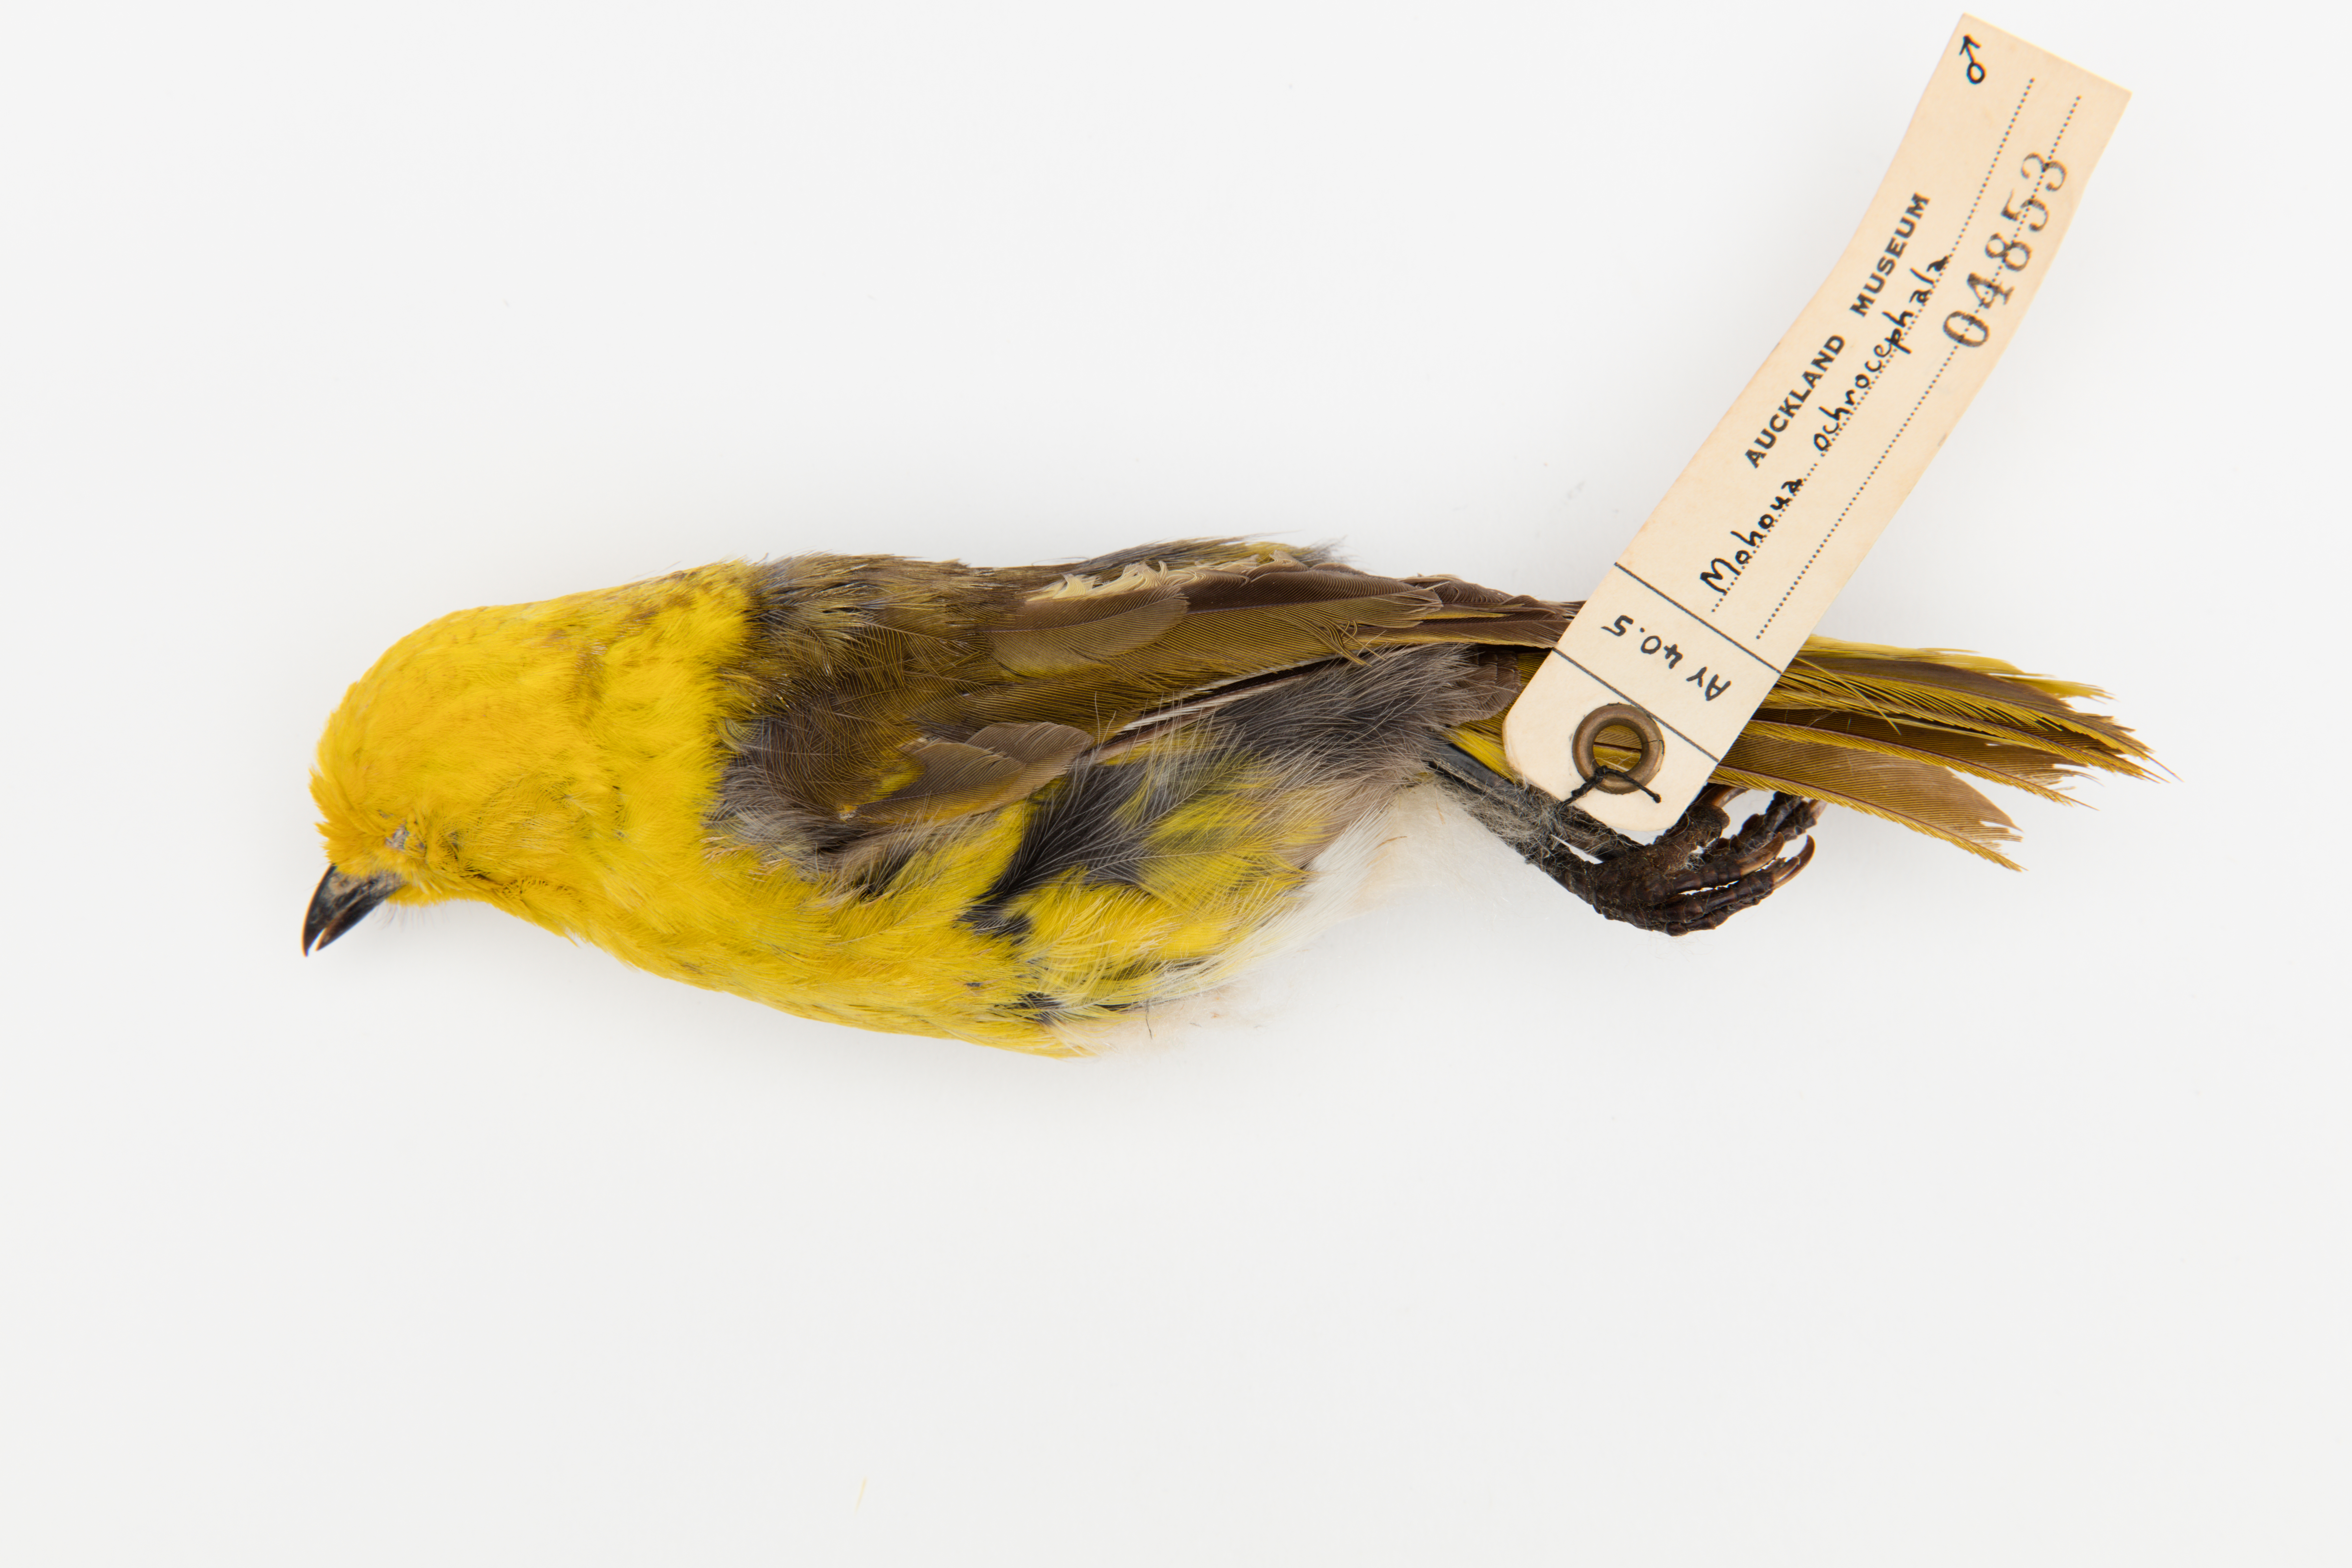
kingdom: Animalia
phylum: Chordata
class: Aves
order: Passeriformes
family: Acanthizidae
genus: Mohoua
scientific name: Mohoua ochrocephala
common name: Yellowhead
